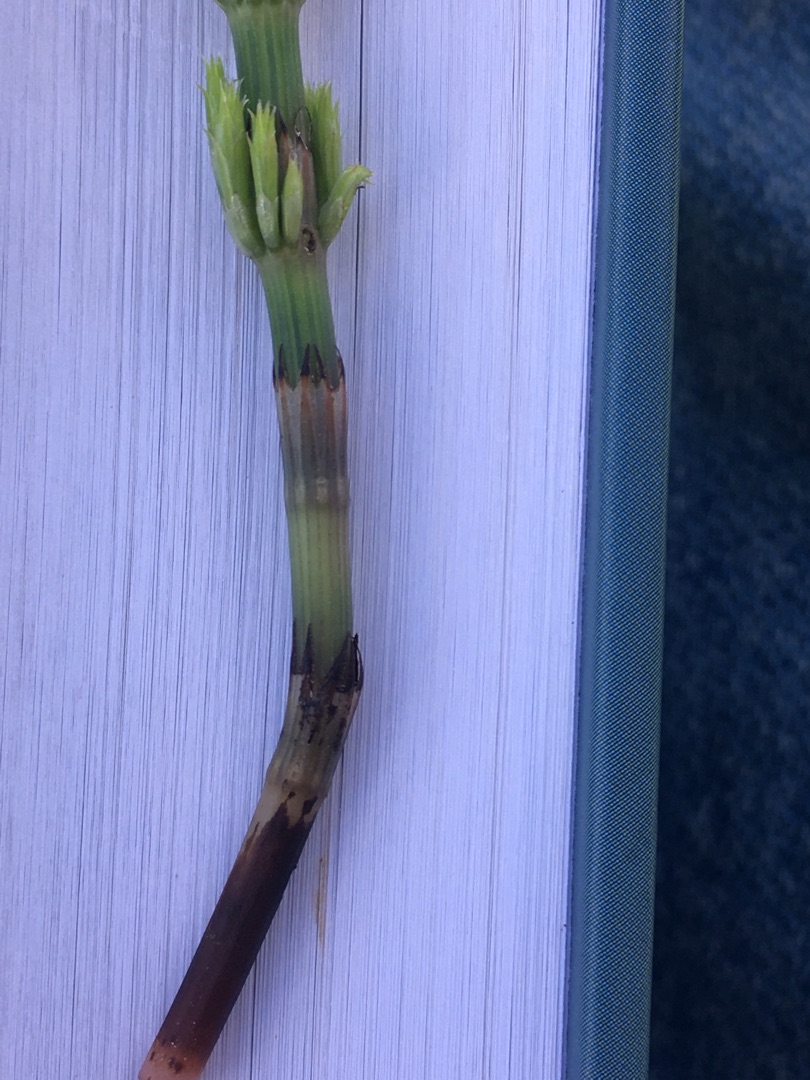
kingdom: Plantae
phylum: Tracheophyta
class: Polypodiopsida
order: Equisetales
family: Equisetaceae
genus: Equisetum
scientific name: Equisetum arvense
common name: Ager-padderok
